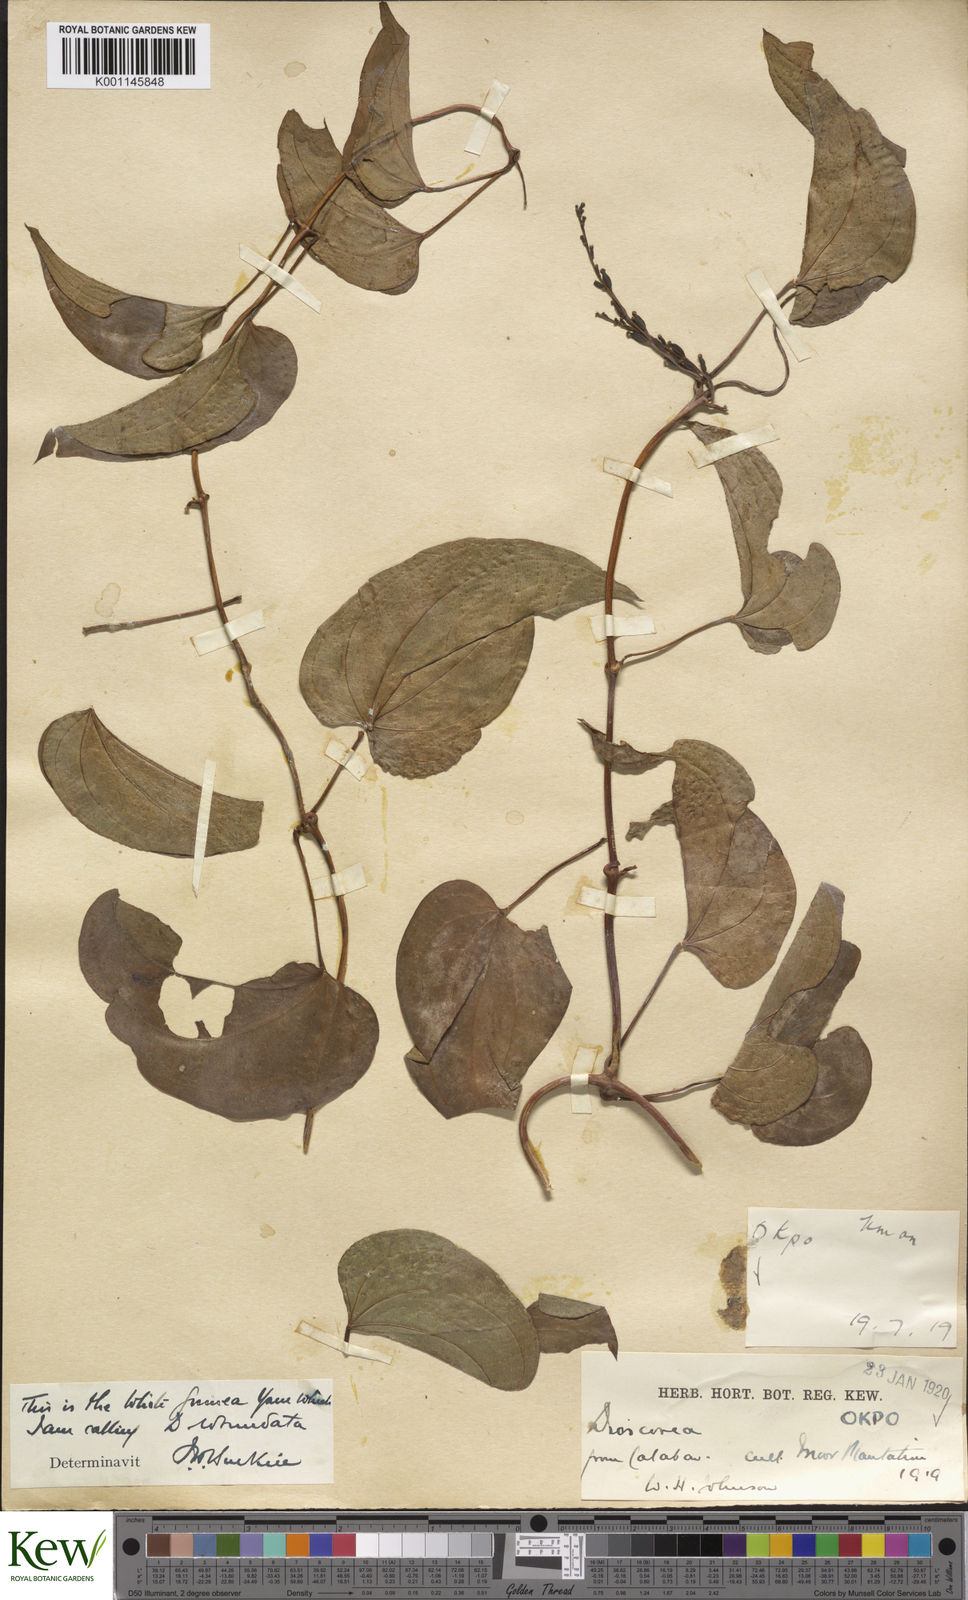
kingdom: Plantae
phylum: Tracheophyta
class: Liliopsida
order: Dioscoreales
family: Dioscoreaceae
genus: Dioscorea
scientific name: Dioscorea cayenensis
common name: Attoto yam
